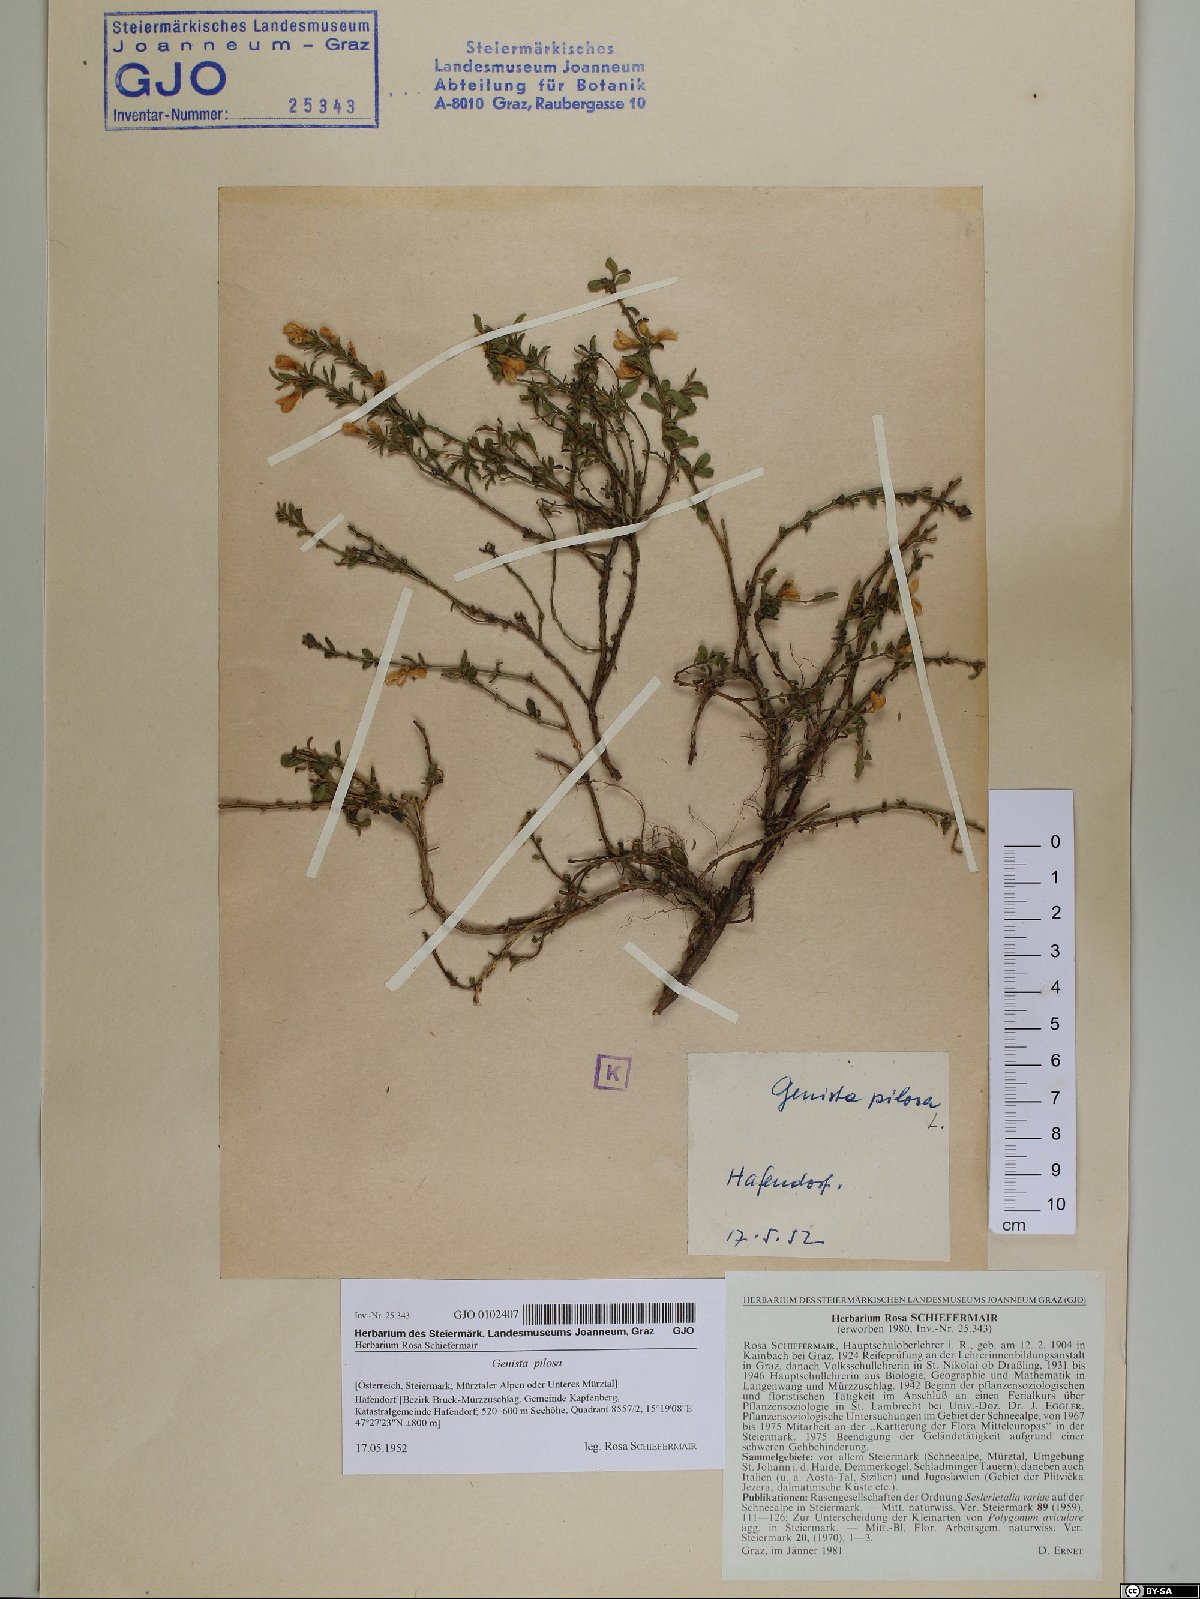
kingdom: Plantae
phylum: Tracheophyta
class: Magnoliopsida
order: Fabales
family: Fabaceae
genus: Genista
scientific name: Genista pilosa
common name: Hairy greenweed
